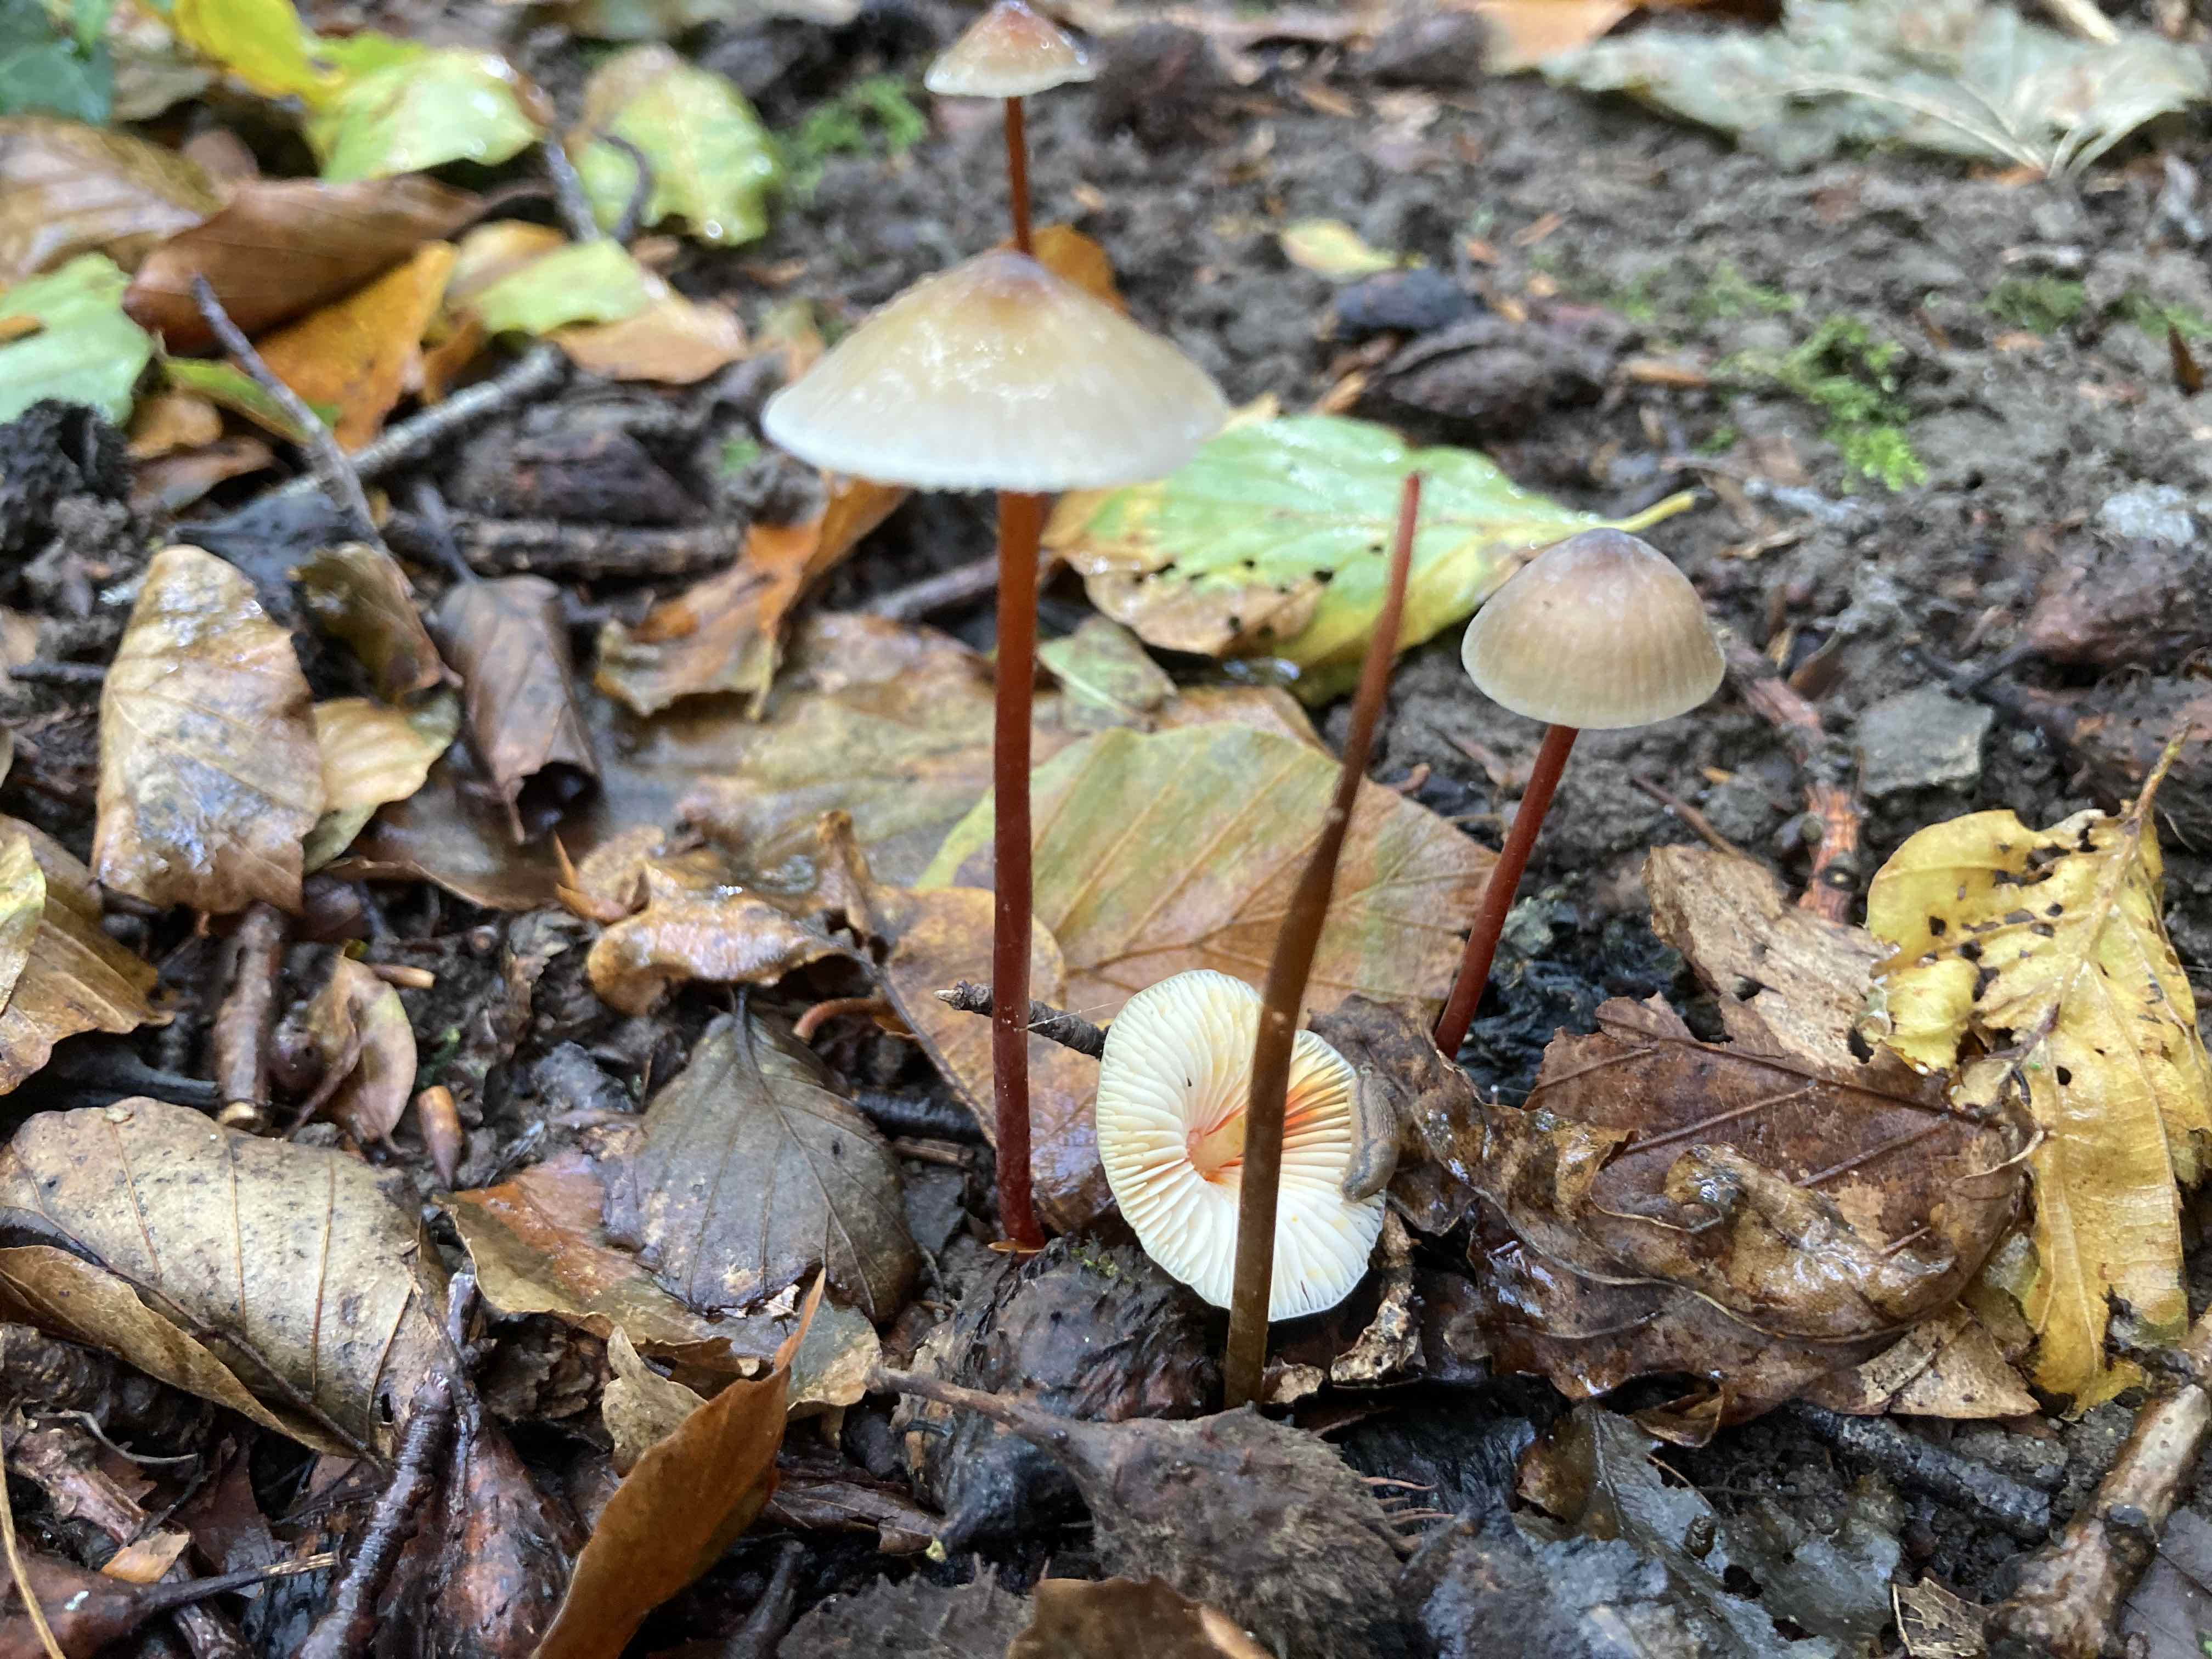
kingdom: Fungi
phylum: Basidiomycota
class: Agaricomycetes
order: Agaricales
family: Mycenaceae
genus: Mycena
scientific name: Mycena crocata
